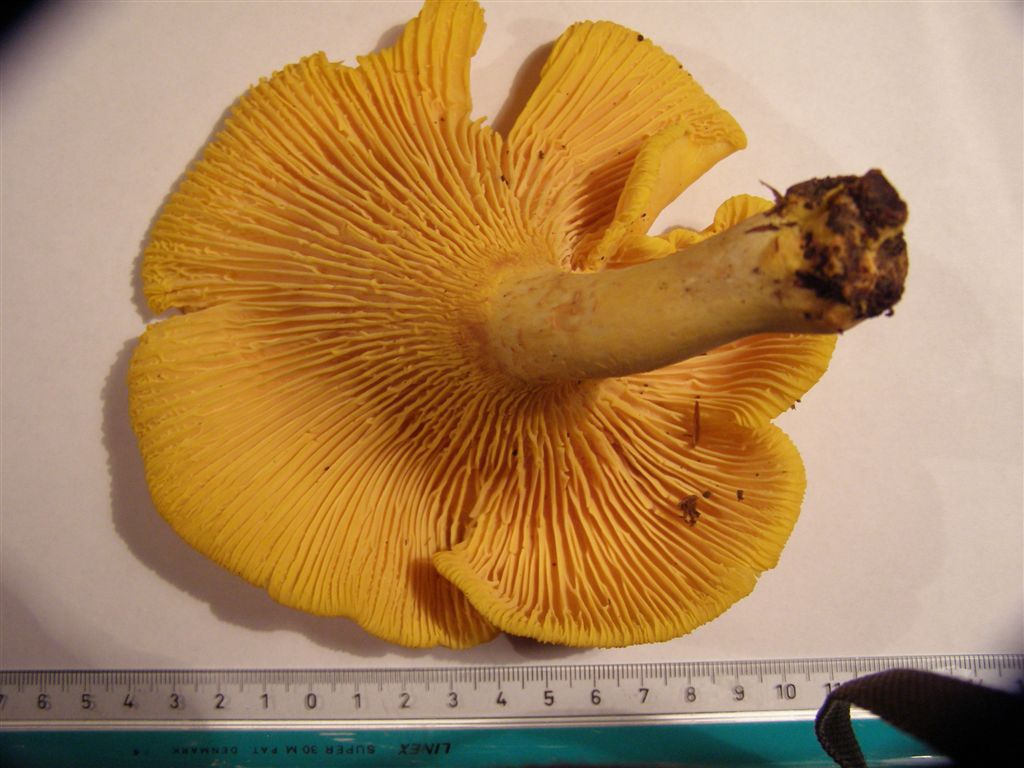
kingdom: Fungi
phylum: Basidiomycota
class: Agaricomycetes
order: Cantharellales
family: Hydnaceae
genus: Cantharellus
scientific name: Cantharellus pallens
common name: bleg kantarel
